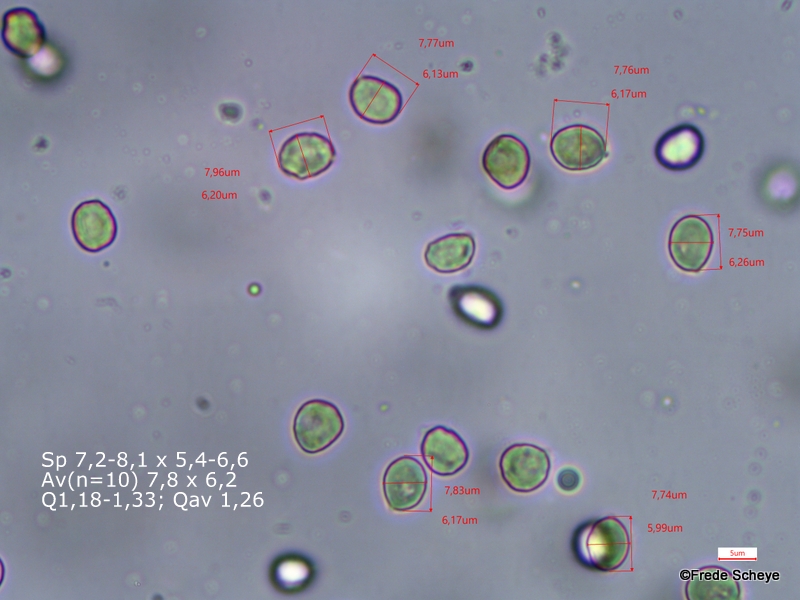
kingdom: Fungi
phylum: Basidiomycota
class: Agaricomycetes
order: Cantharellales
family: Hydnaceae
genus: Hydnum
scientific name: Hydnum repandum
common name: almindelig pigsvamp
